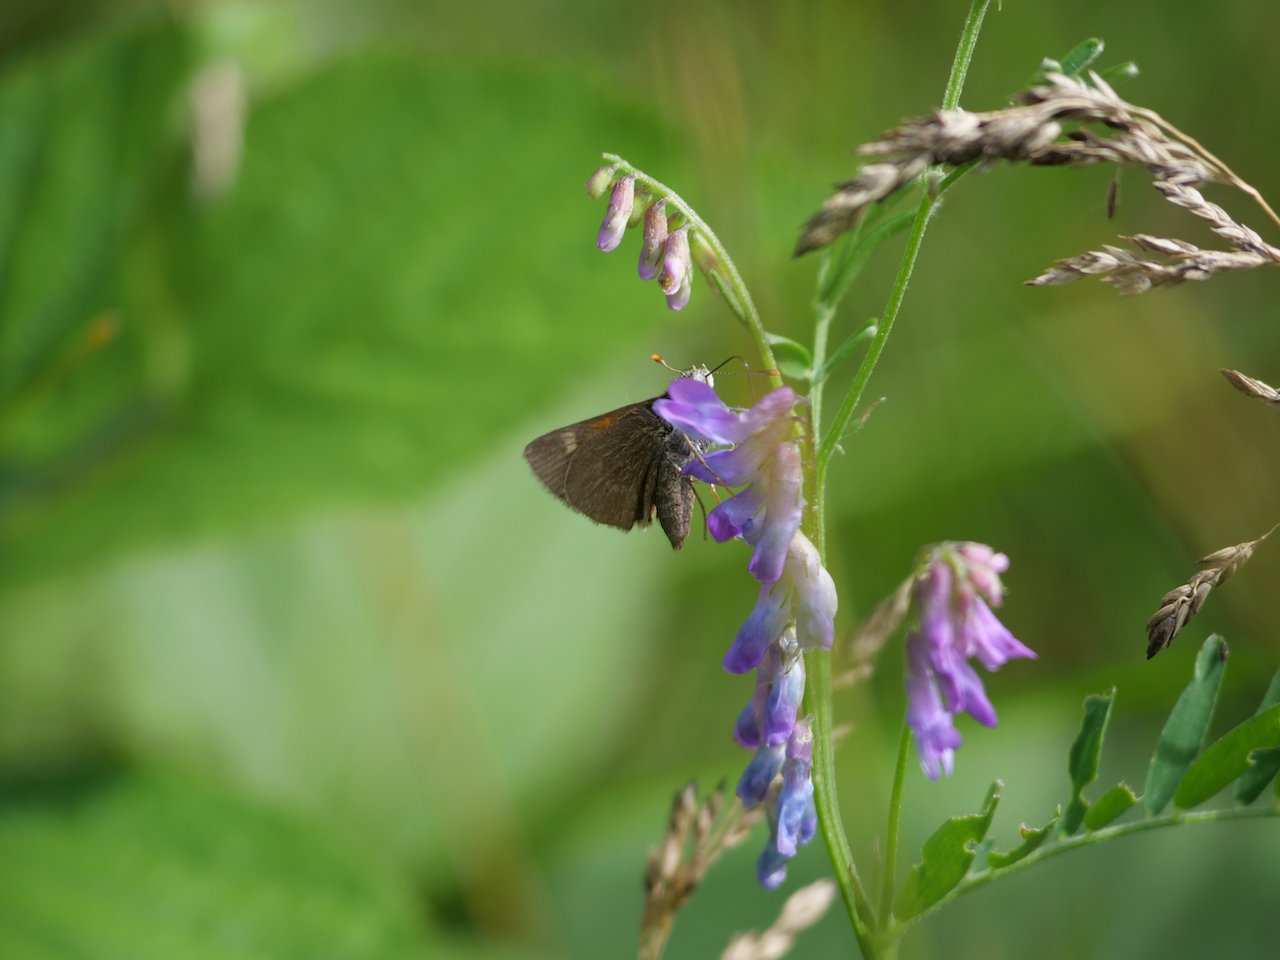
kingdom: Animalia
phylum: Arthropoda
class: Insecta
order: Lepidoptera
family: Hesperiidae
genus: Polites
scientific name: Polites themistocles
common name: Tawny-edged Skipper
